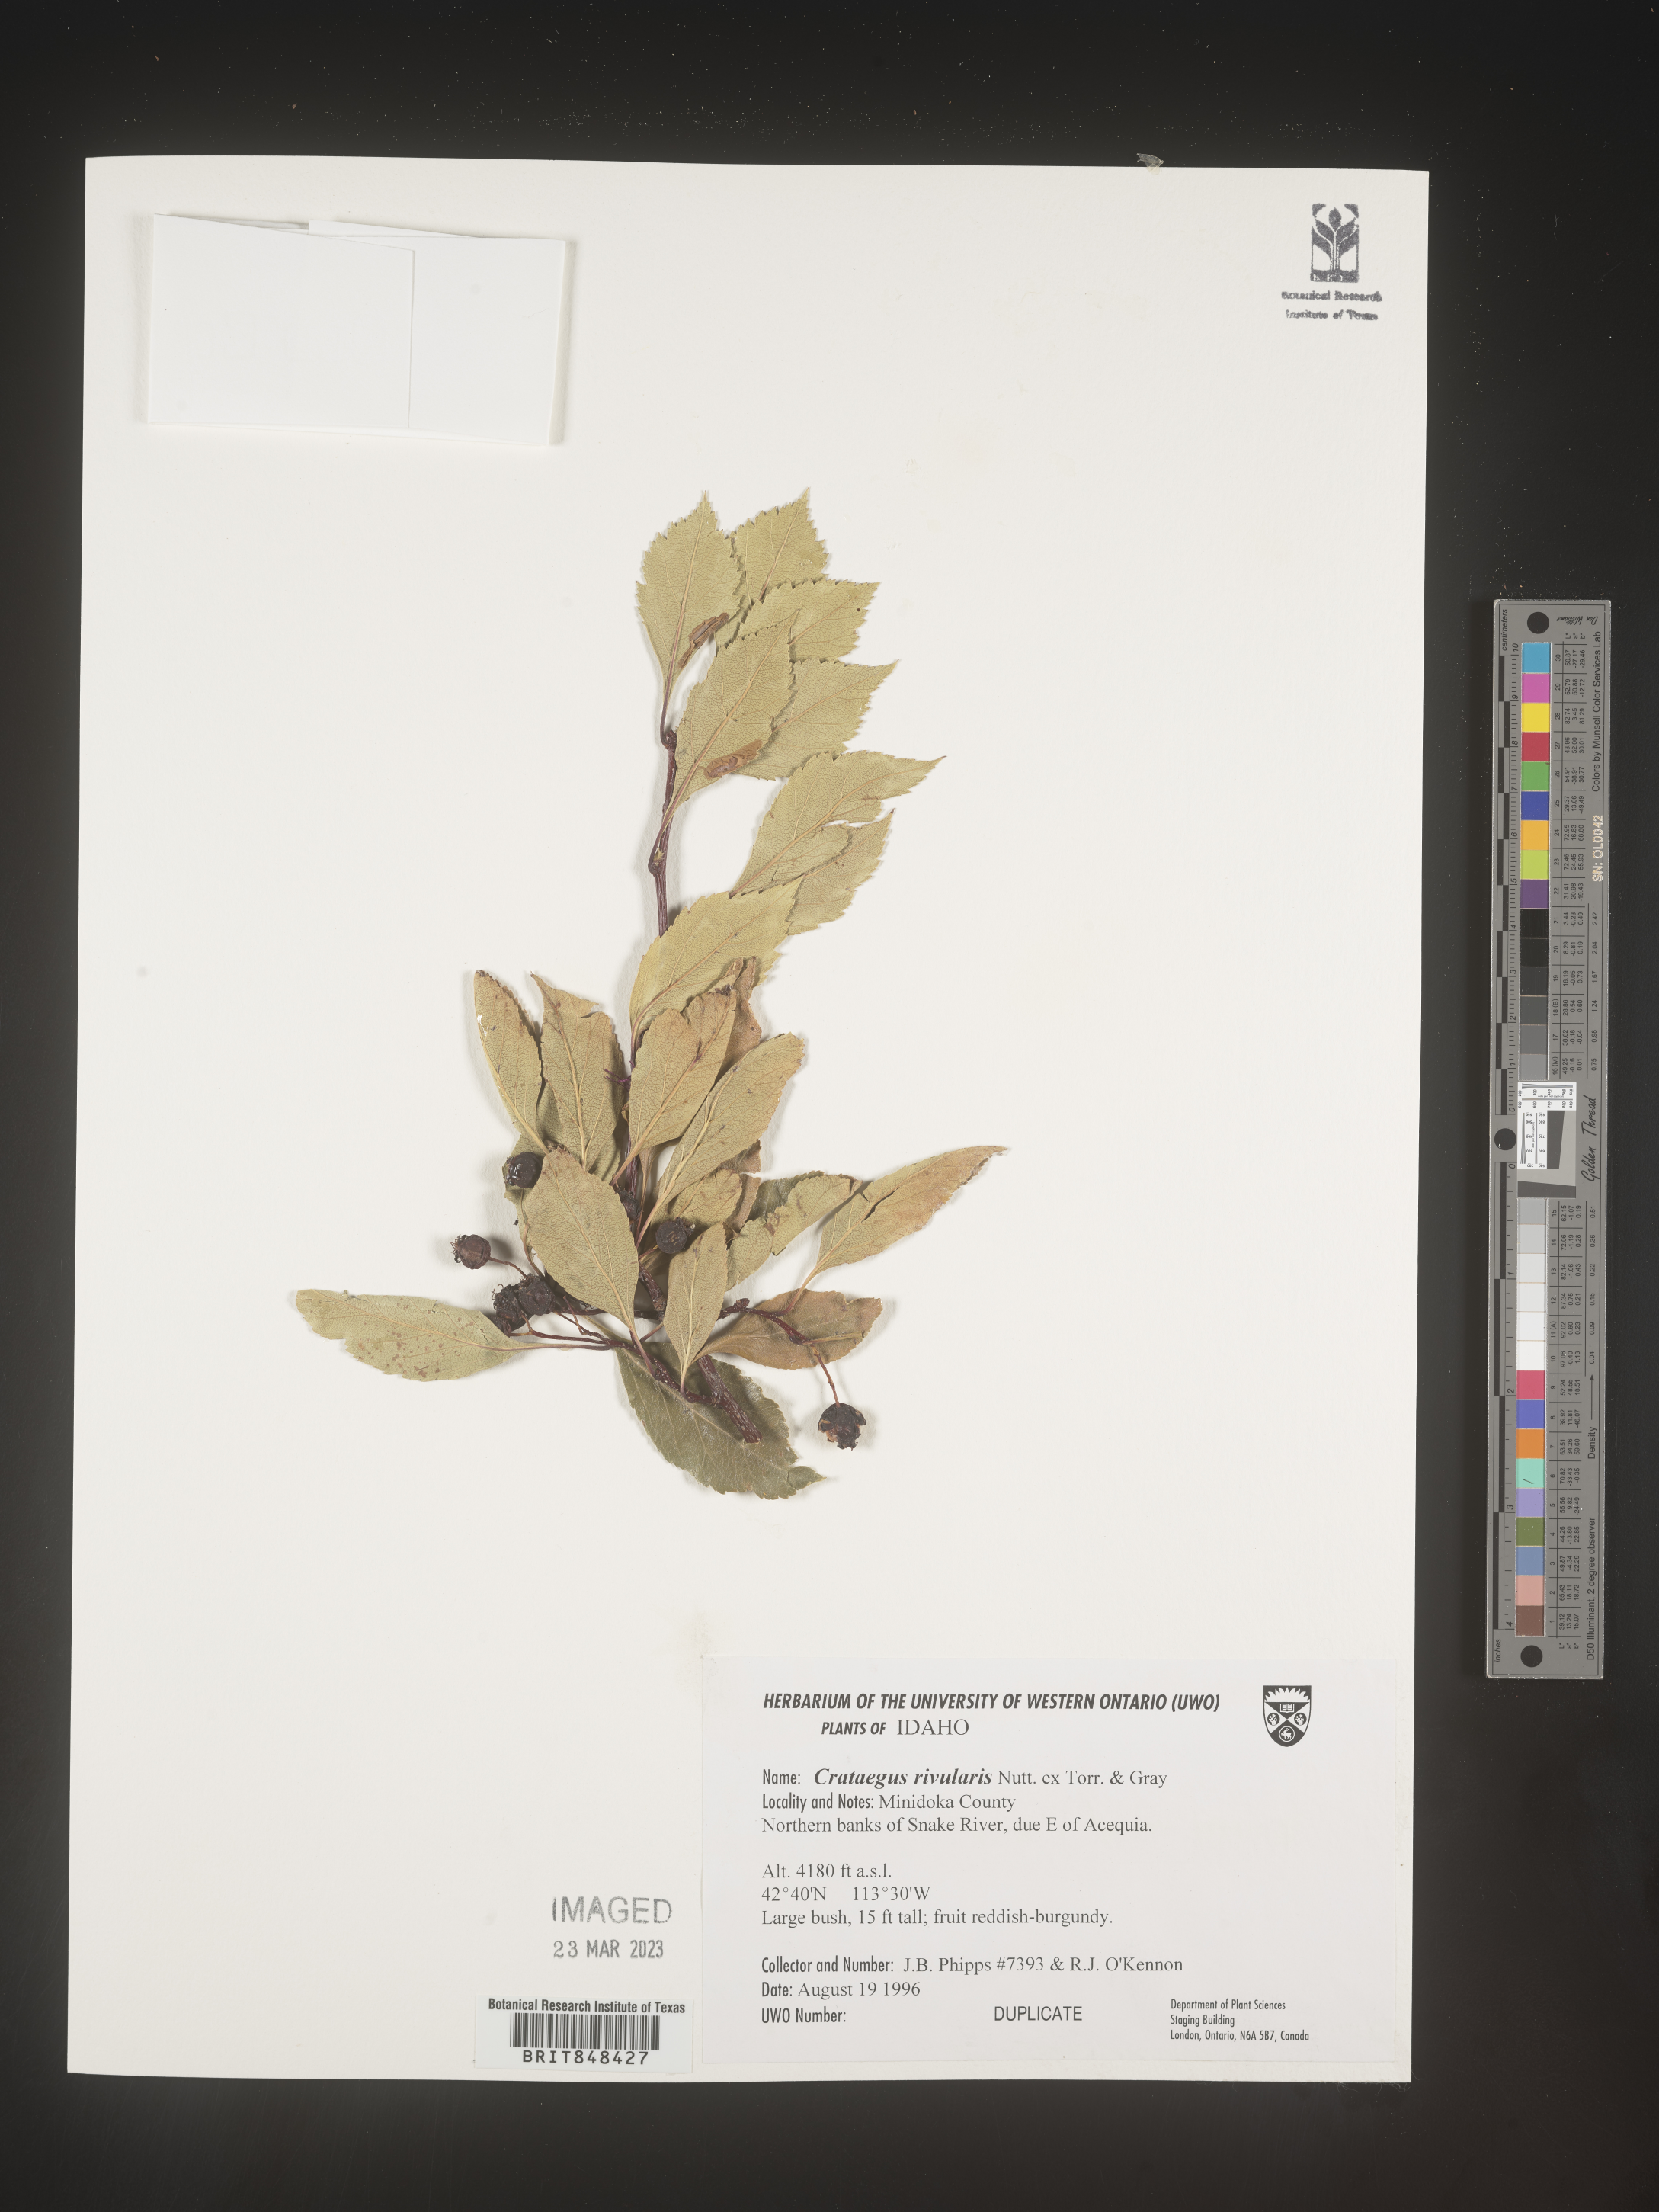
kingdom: Plantae
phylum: Tracheophyta
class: Magnoliopsida
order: Rosales
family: Rosaceae
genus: Crataegus
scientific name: Crataegus rivalis
